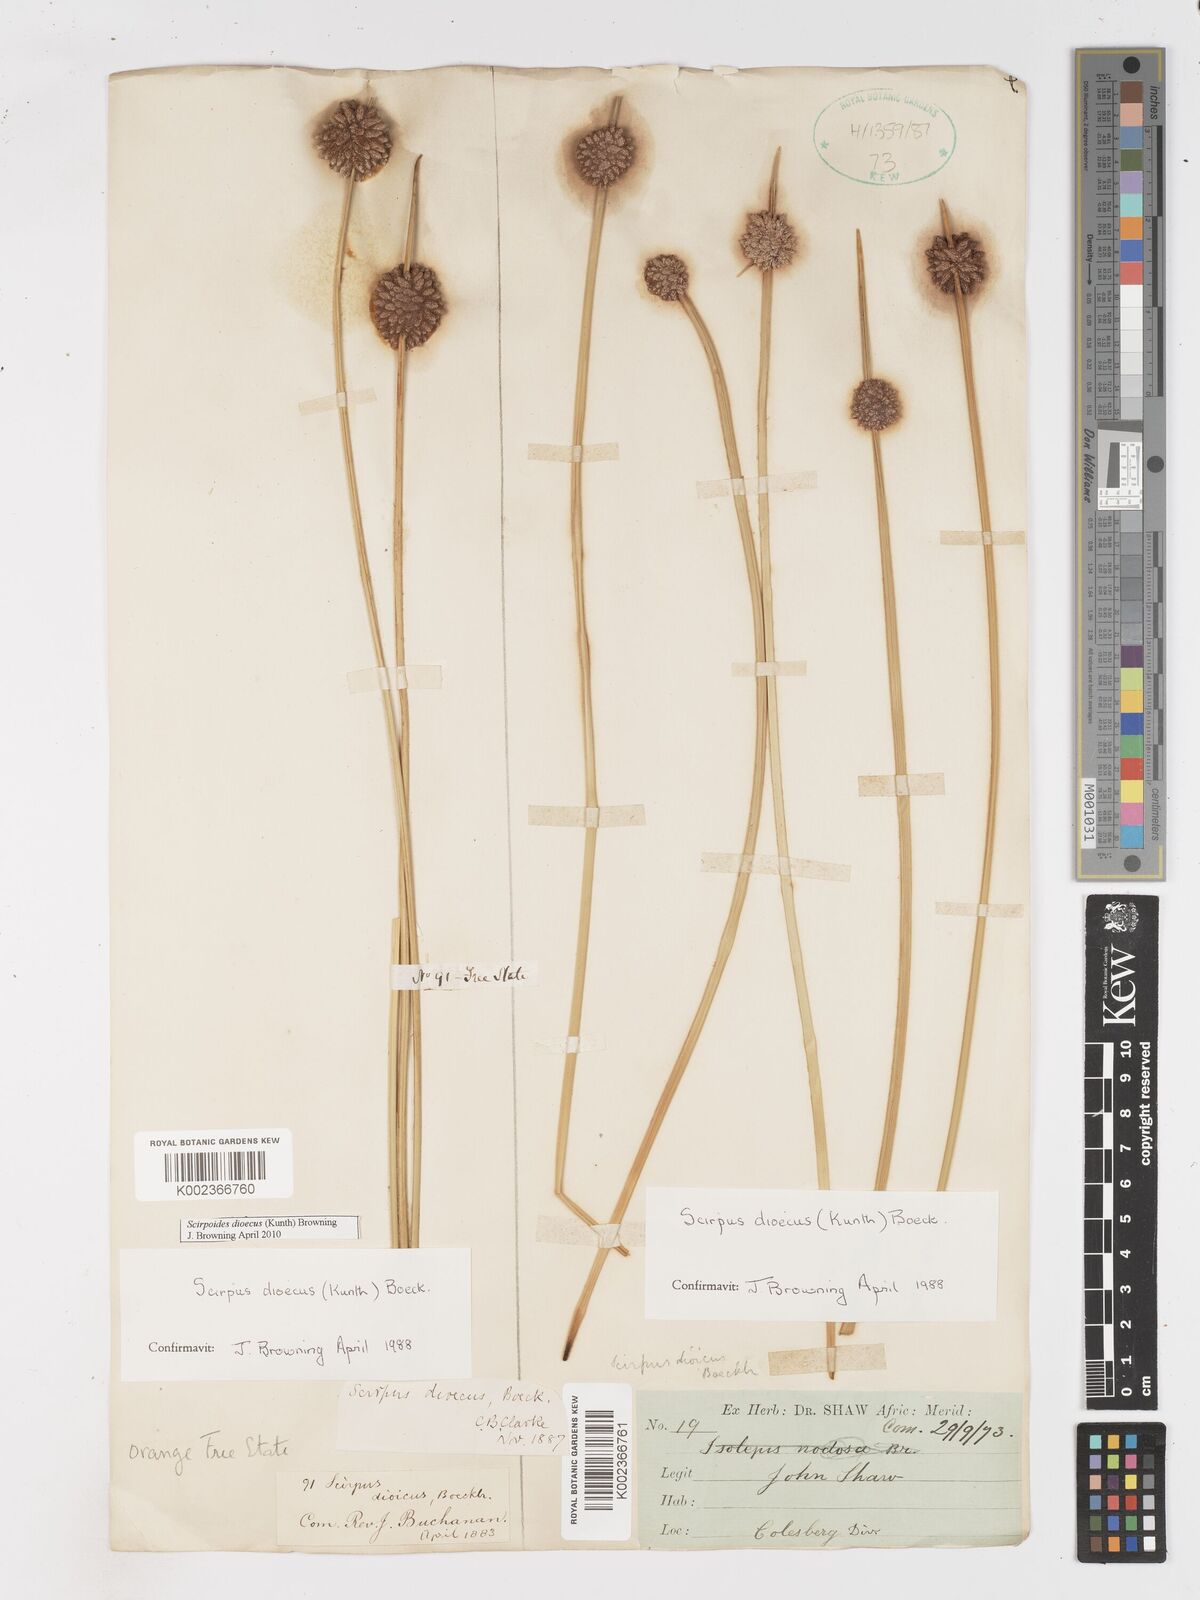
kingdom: Plantae
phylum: Tracheophyta
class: Liliopsida
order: Poales
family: Cyperaceae
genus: Afroscirpoides
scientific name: Afroscirpoides dioeca
